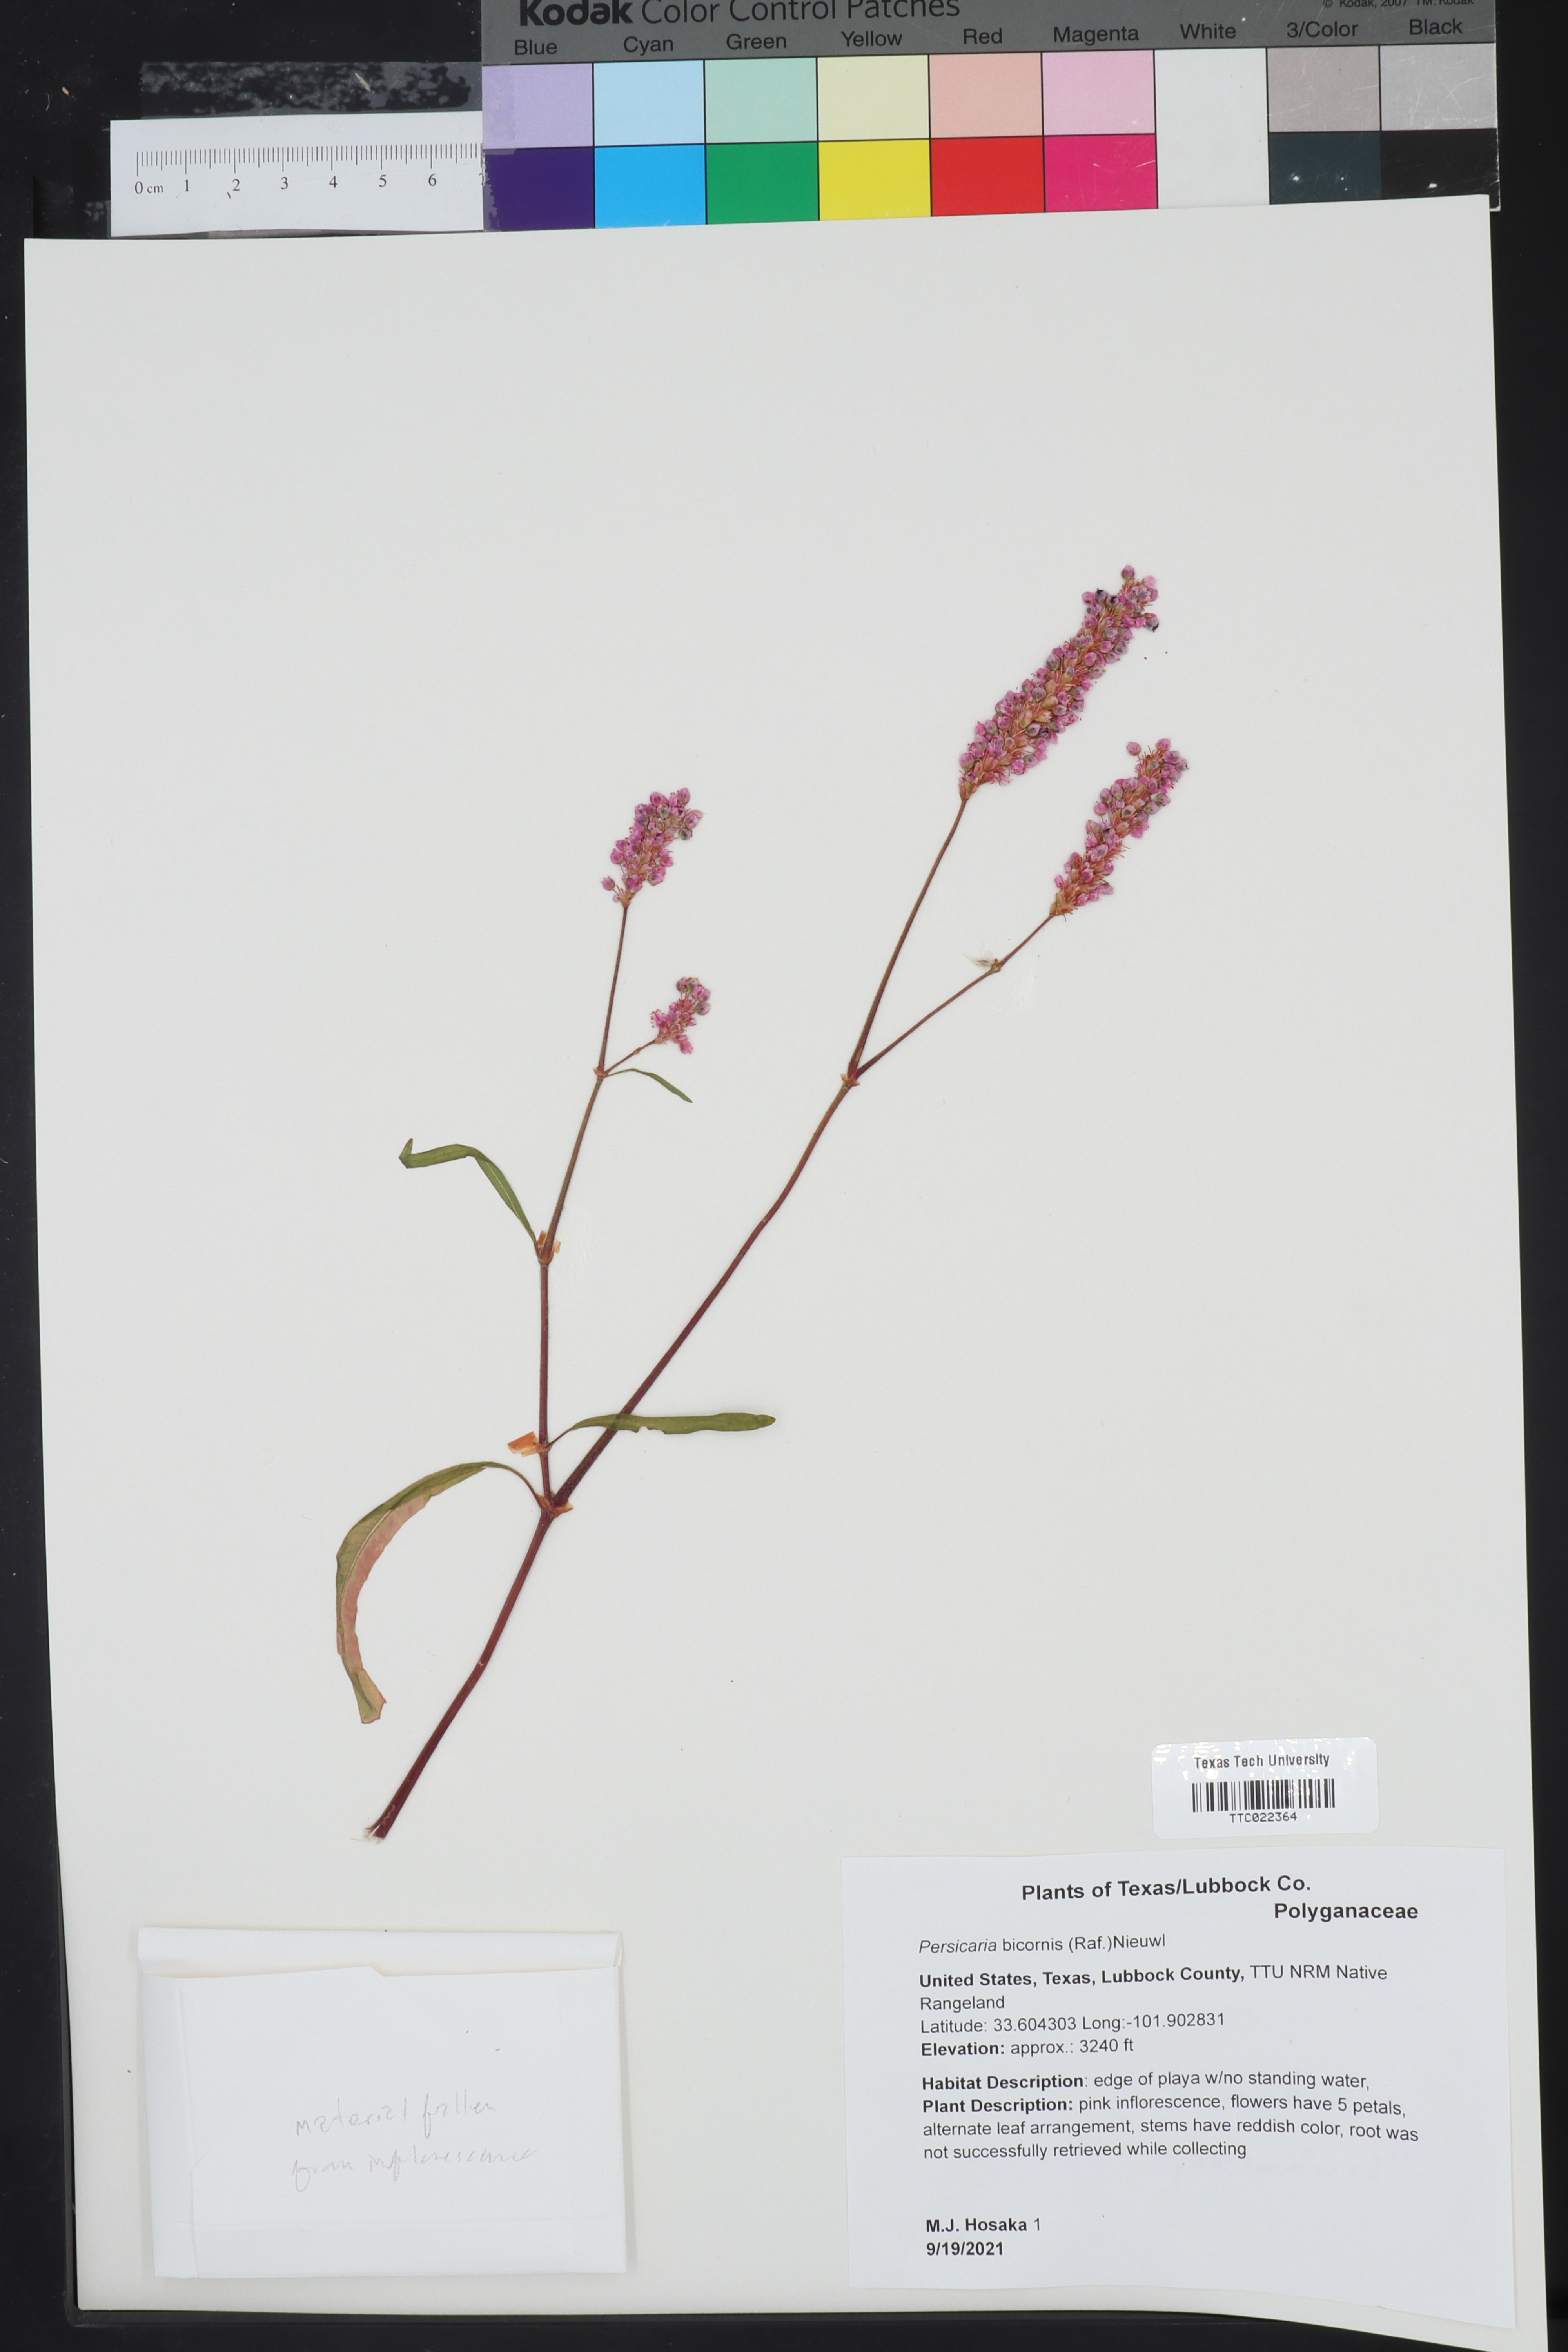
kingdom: Plantae
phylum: Tracheophyta
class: Magnoliopsida
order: Caryophyllales
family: Polygonaceae
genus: Persicaria
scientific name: Persicaria bicornis
